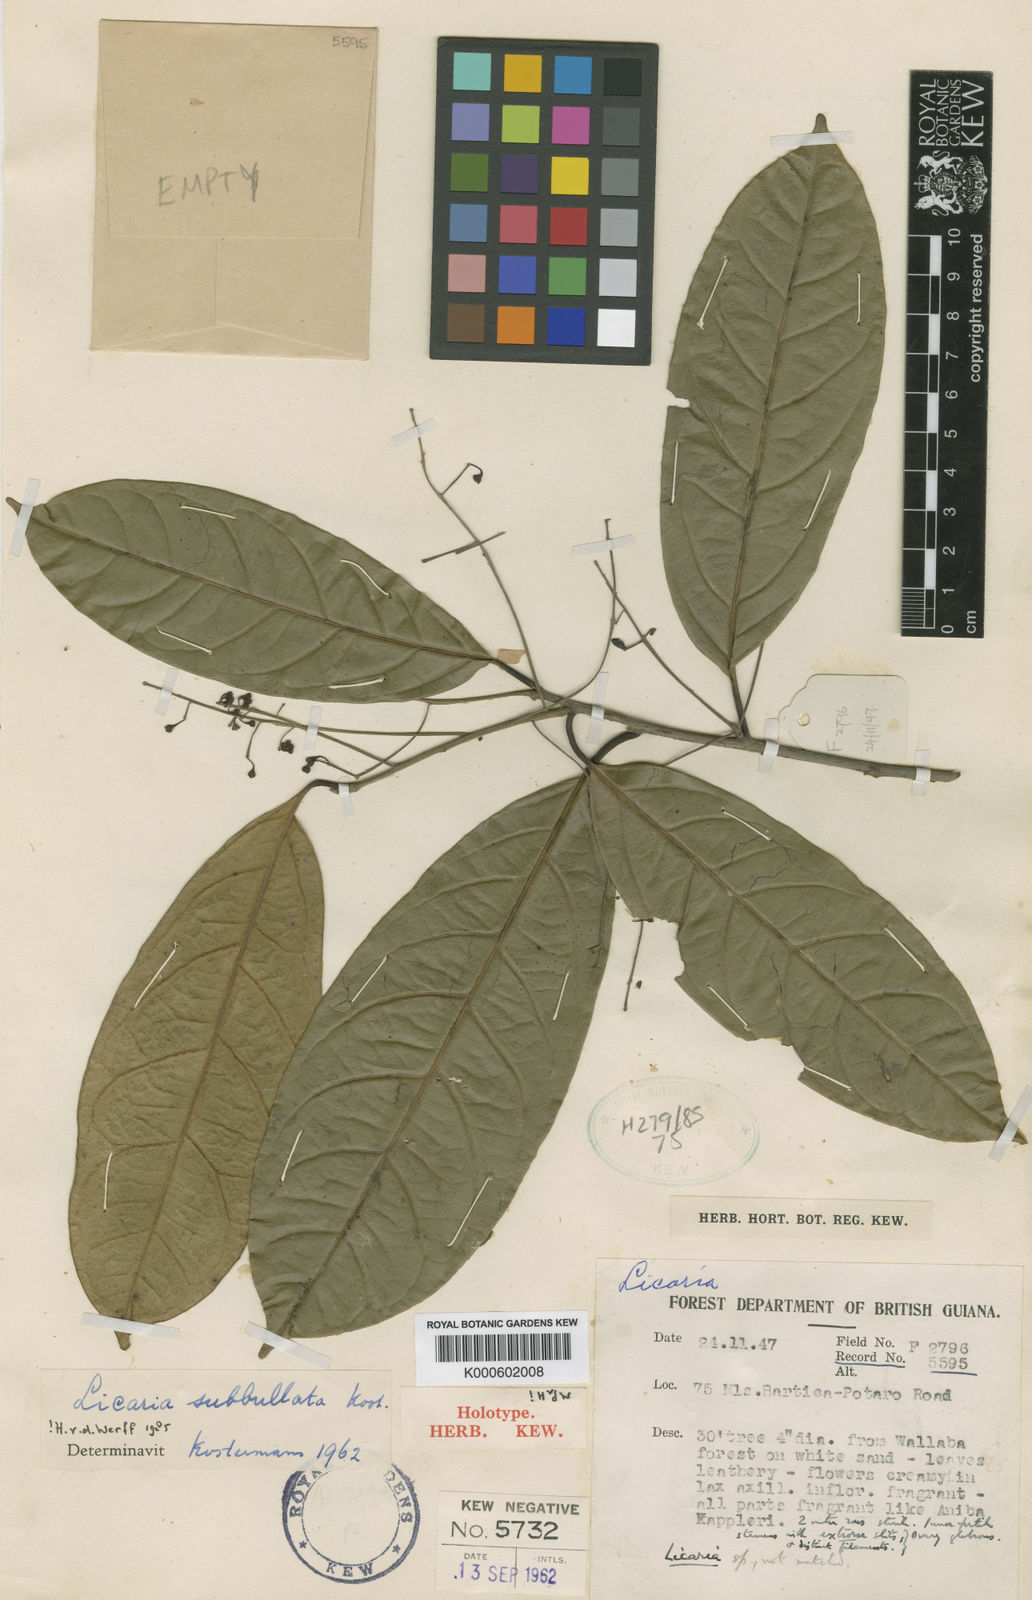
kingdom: Plantae
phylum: Tracheophyta
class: Magnoliopsida
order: Laurales
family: Lauraceae
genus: Licaria
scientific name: Licaria subbullata
